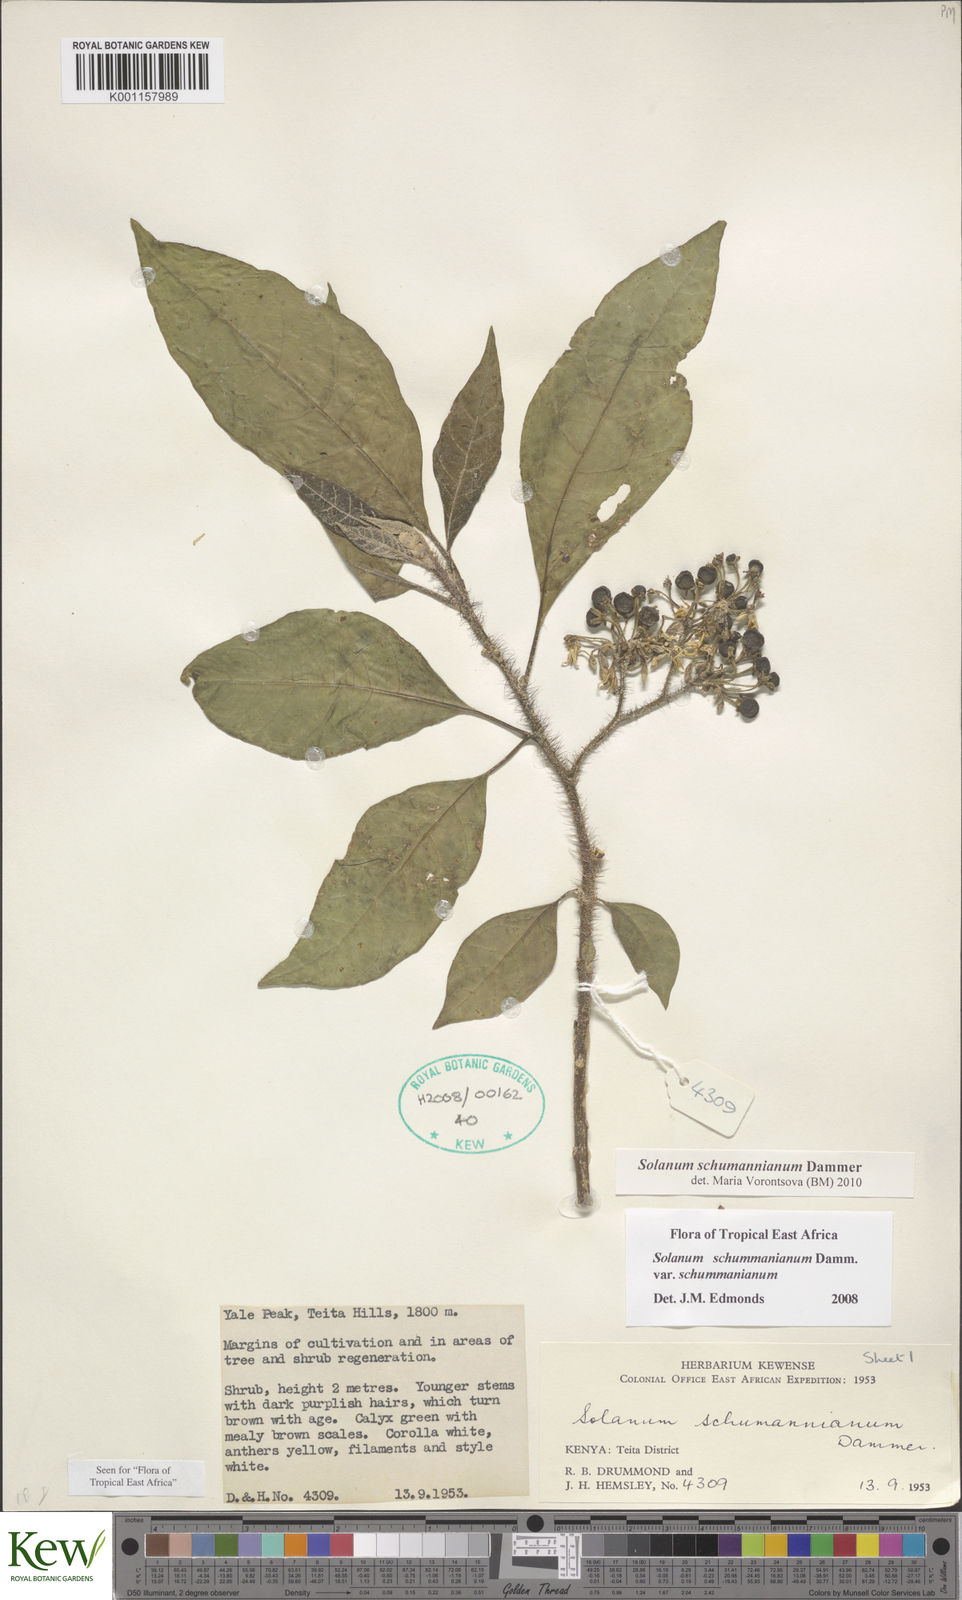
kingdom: Plantae
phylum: Tracheophyta
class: Magnoliopsida
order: Solanales
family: Solanaceae
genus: Solanum
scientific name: Solanum schumannianum
